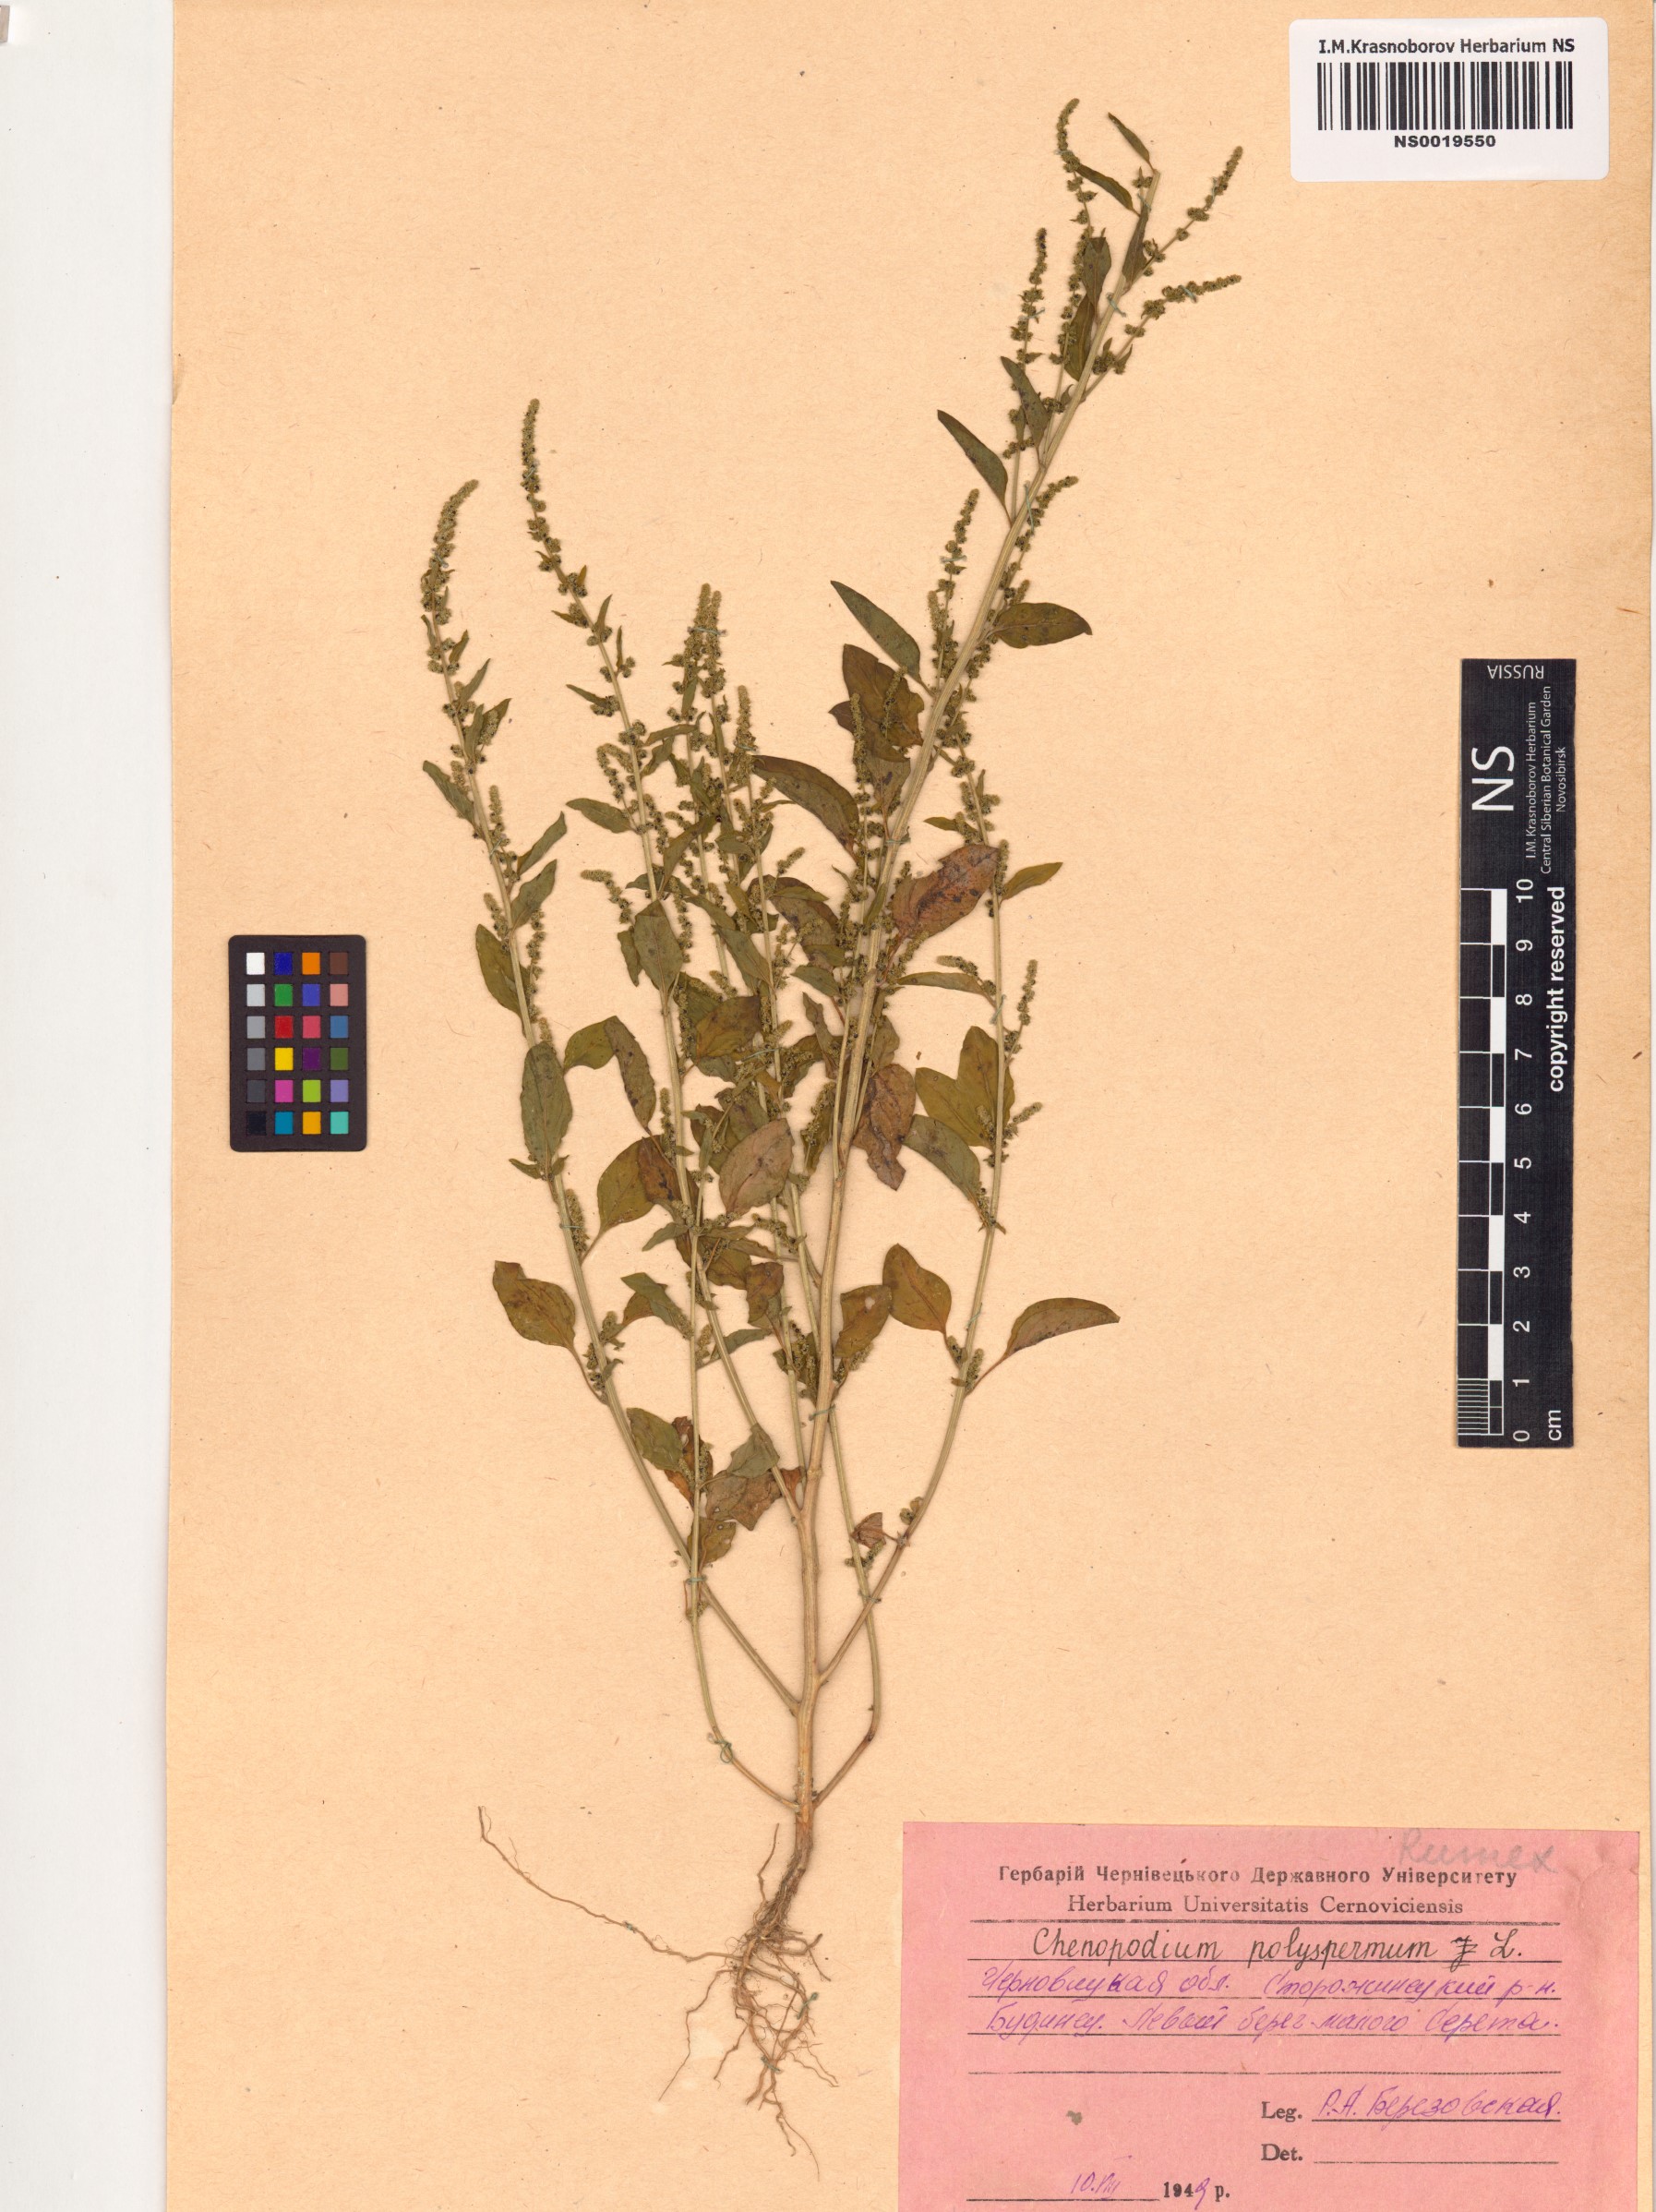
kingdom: Plantae
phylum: Tracheophyta
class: Magnoliopsida
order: Caryophyllales
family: Amaranthaceae
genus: Lipandra
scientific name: Lipandra polysperma
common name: Many-seed goosefoot
